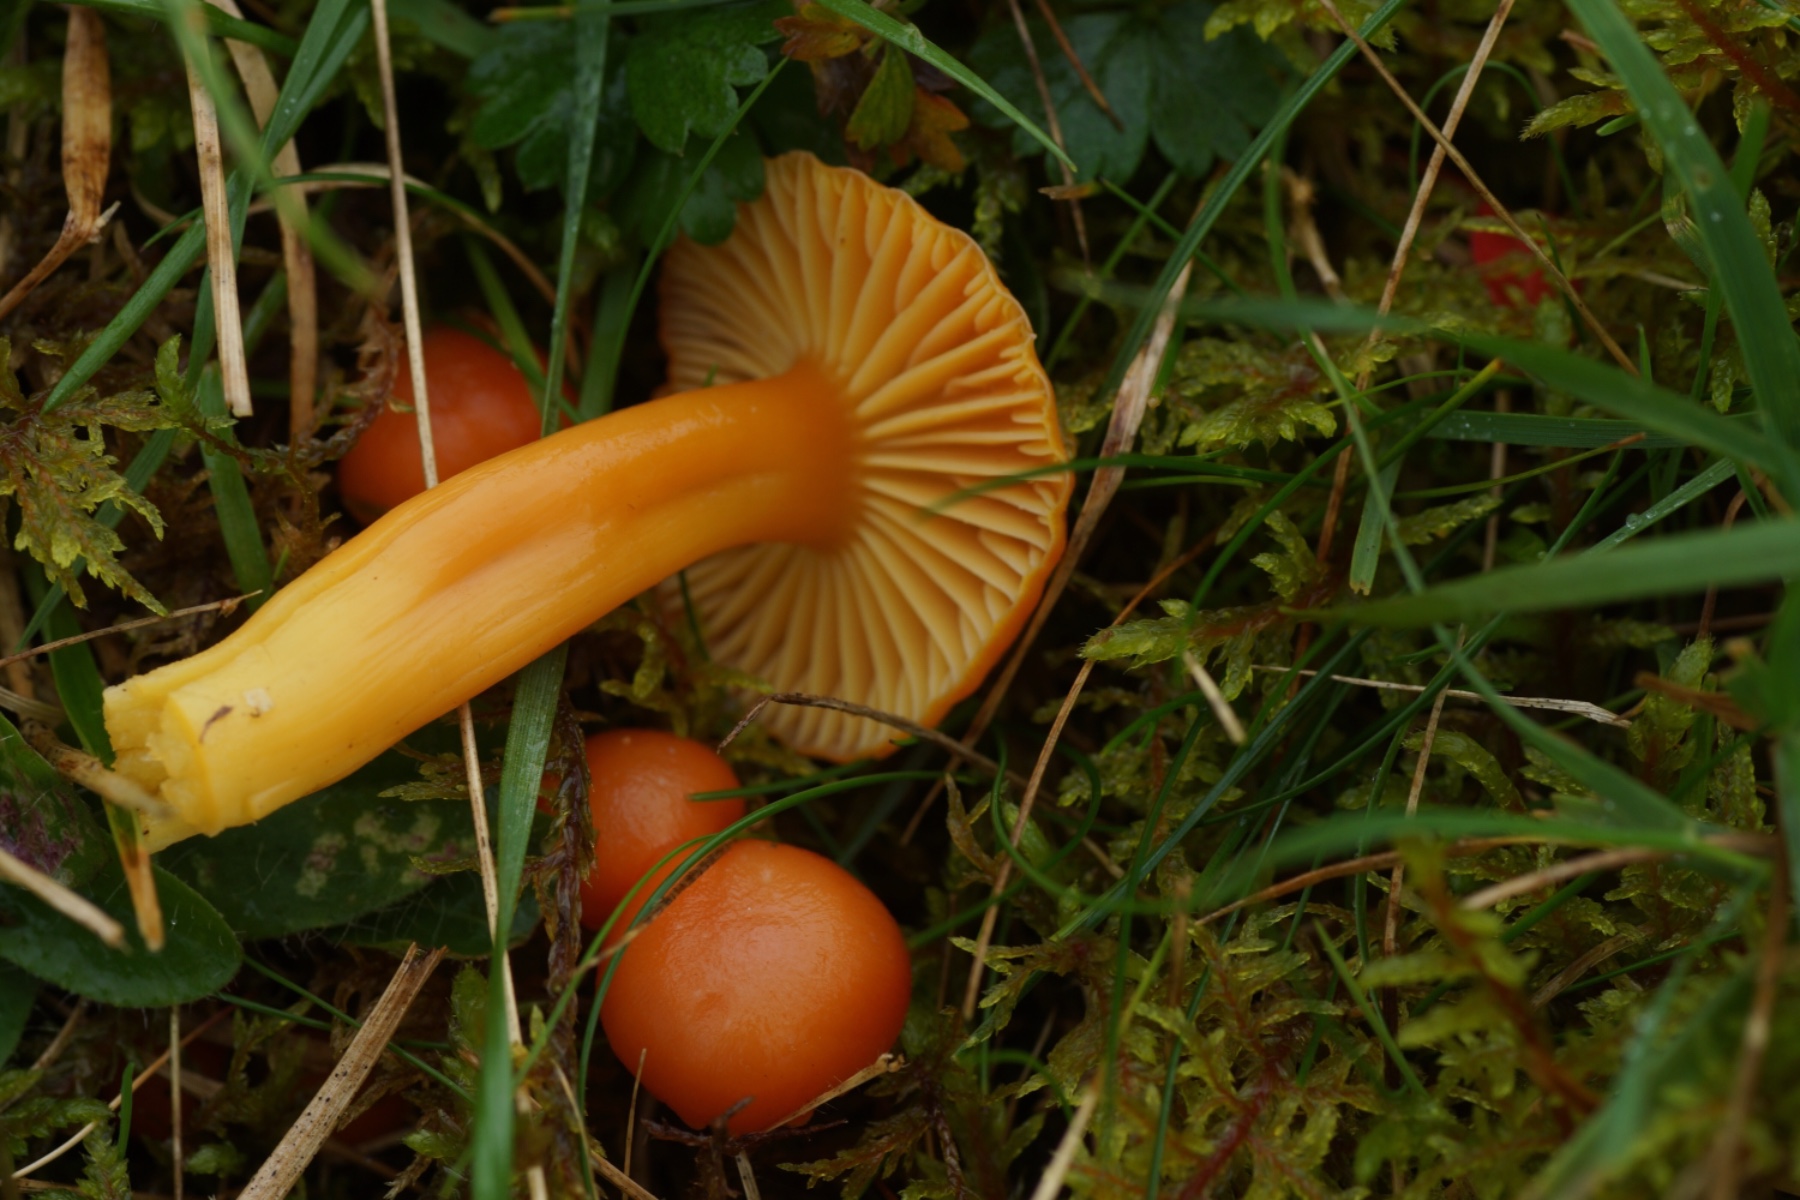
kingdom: Fungi
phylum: Basidiomycota
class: Agaricomycetes
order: Agaricales
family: Hygrophoraceae
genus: Hygrocybe
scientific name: Hygrocybe reidii
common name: honning-vokshat
